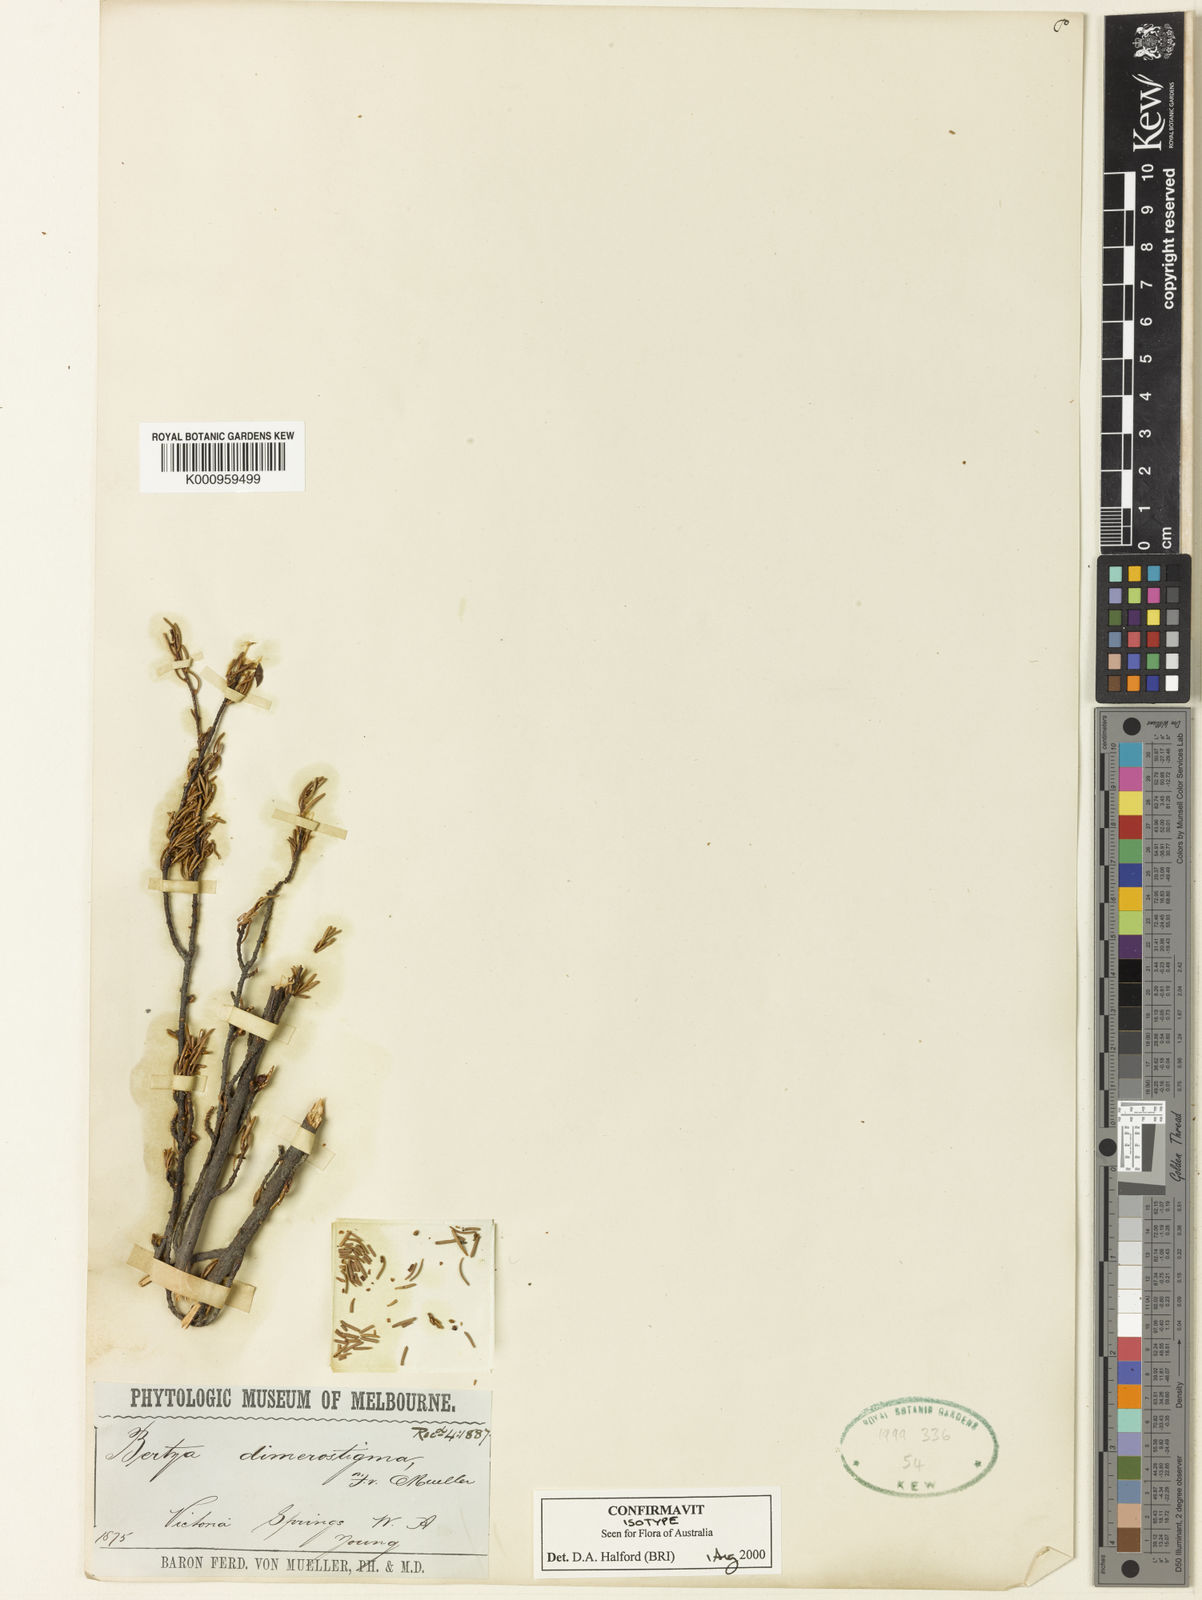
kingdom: Plantae
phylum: Tracheophyta
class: Magnoliopsida
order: Malpighiales
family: Euphorbiaceae
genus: Bertya
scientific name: Bertya dimerostigma
